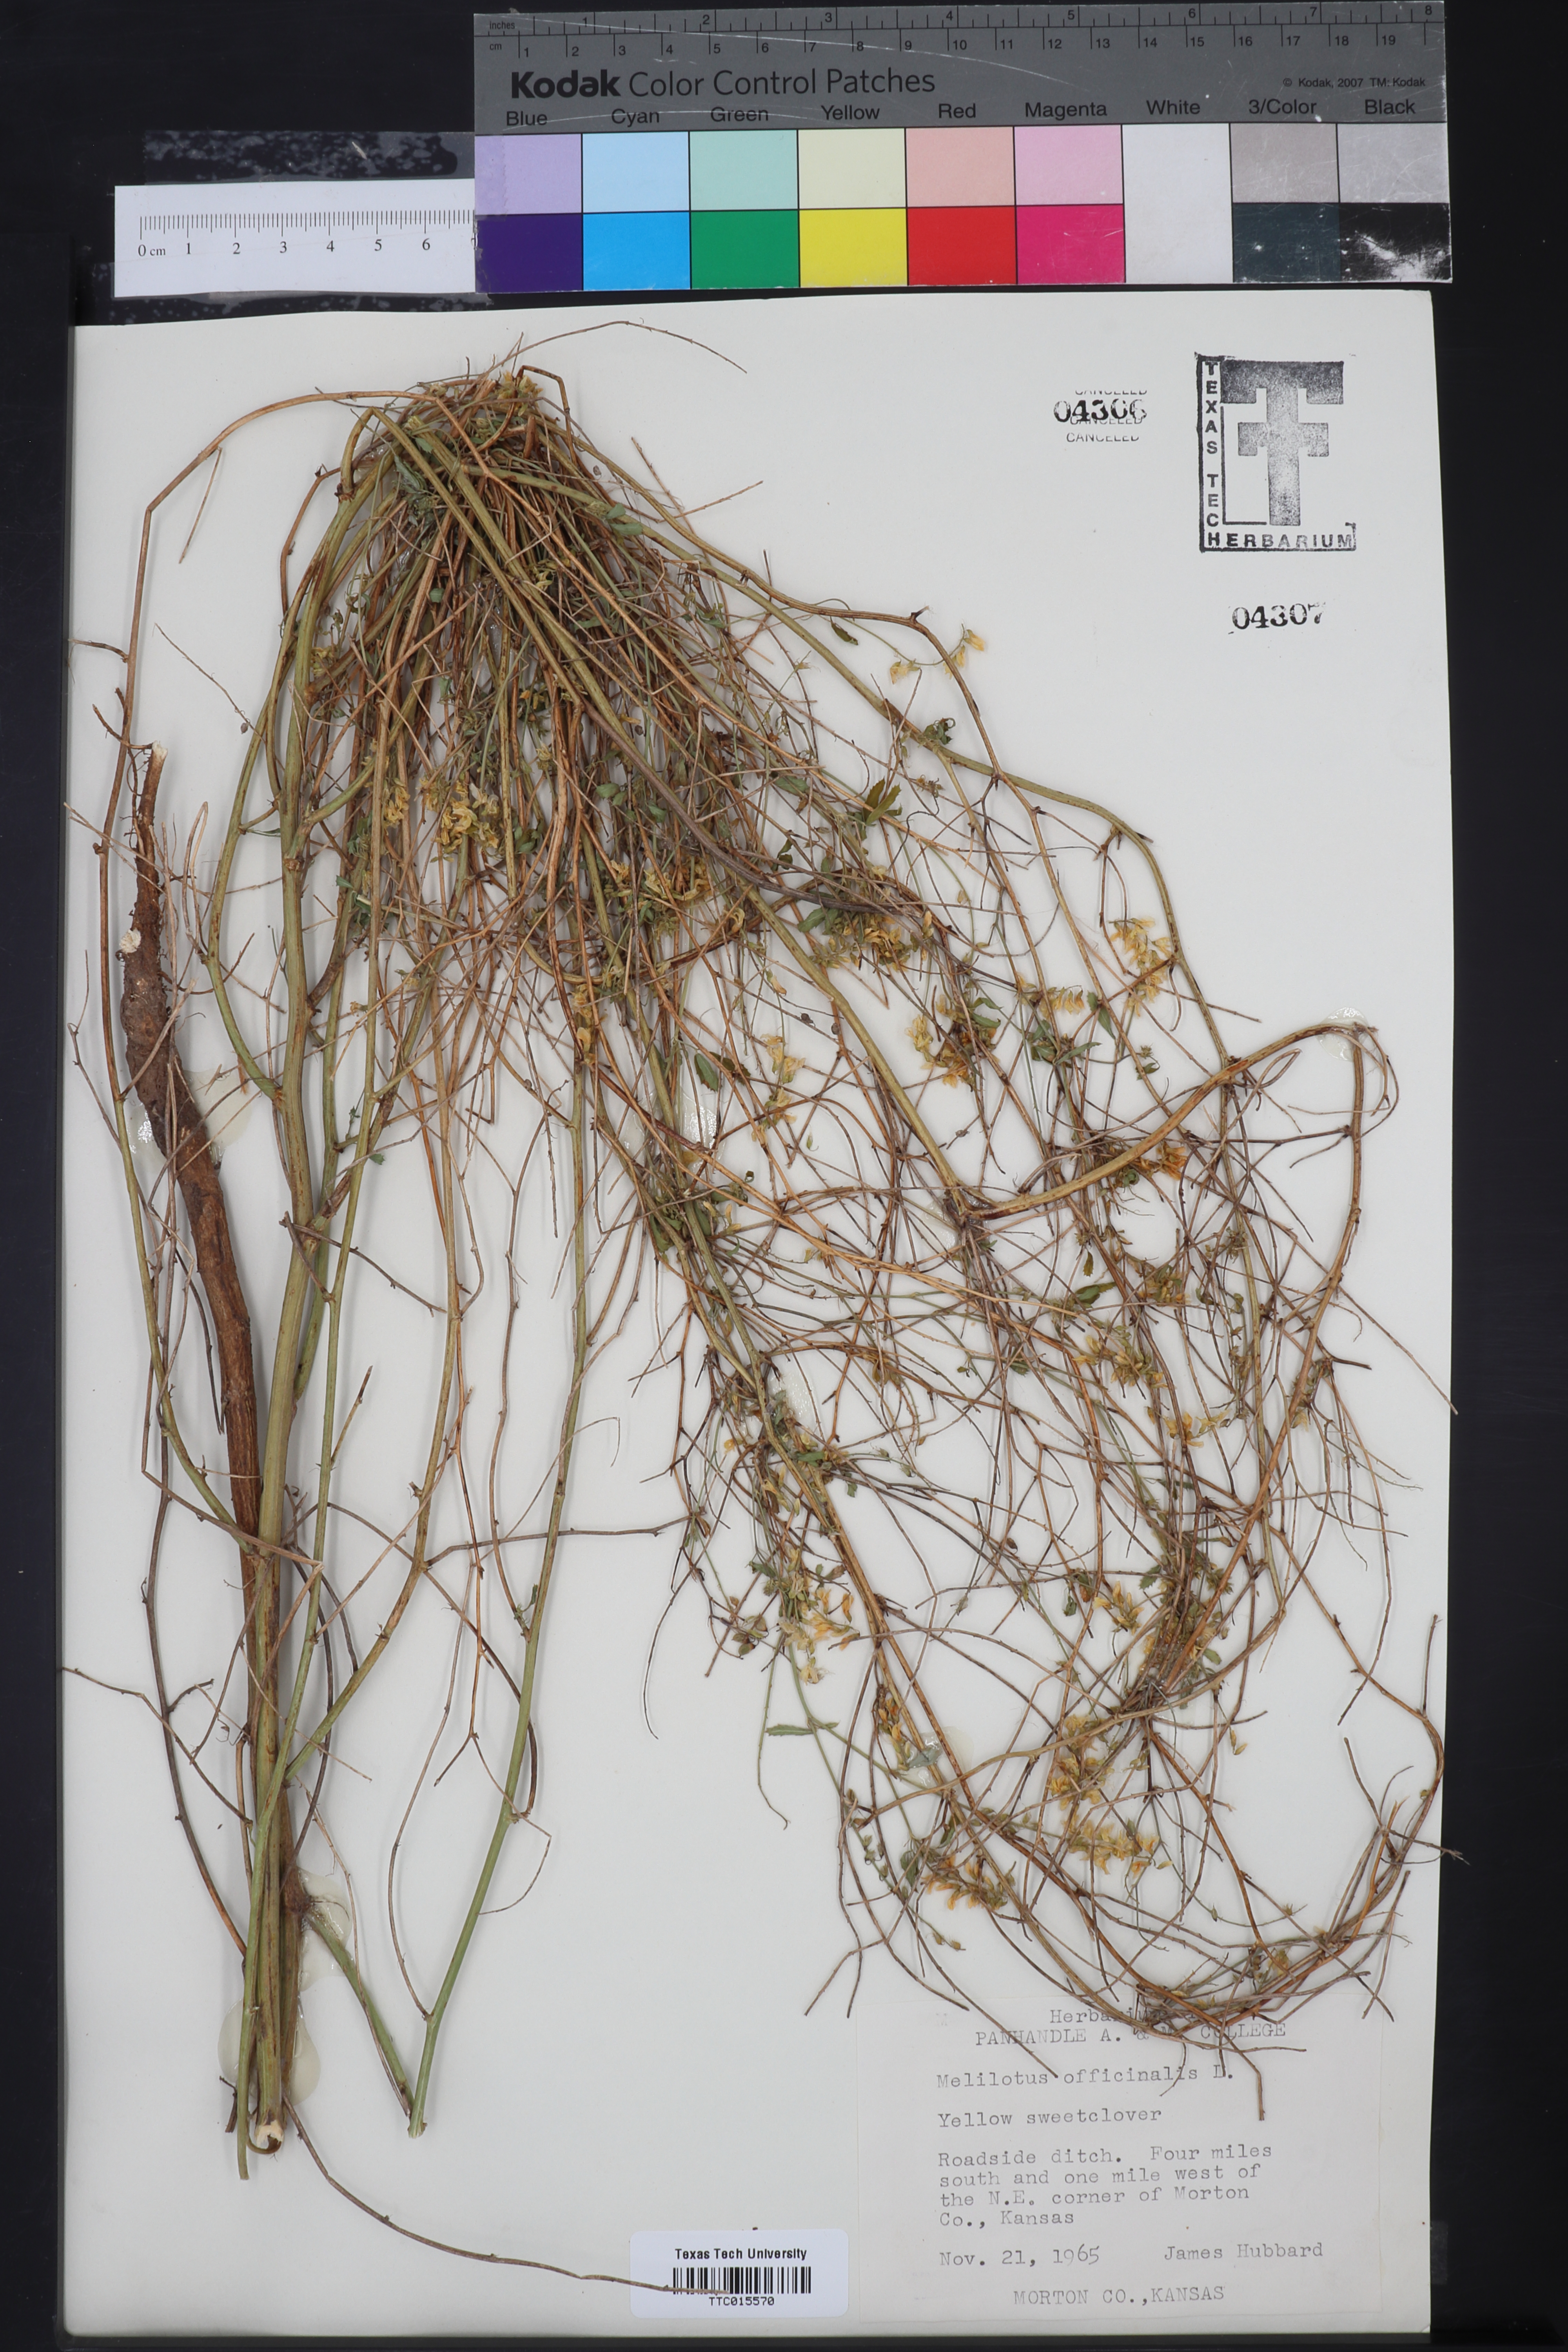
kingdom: Plantae
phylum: Tracheophyta
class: Magnoliopsida
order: Fabales
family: Fabaceae
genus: Melilotus
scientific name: Melilotus officinalis
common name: Sweetclover
